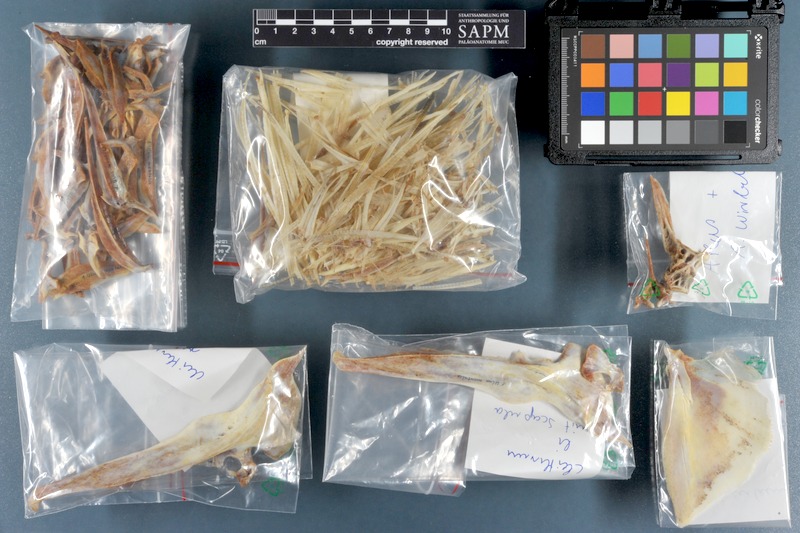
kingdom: Animalia
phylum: Chordata
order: Perciformes
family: Carangidae
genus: Ulua
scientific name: Ulua mentalis
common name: Longrakered trevally
